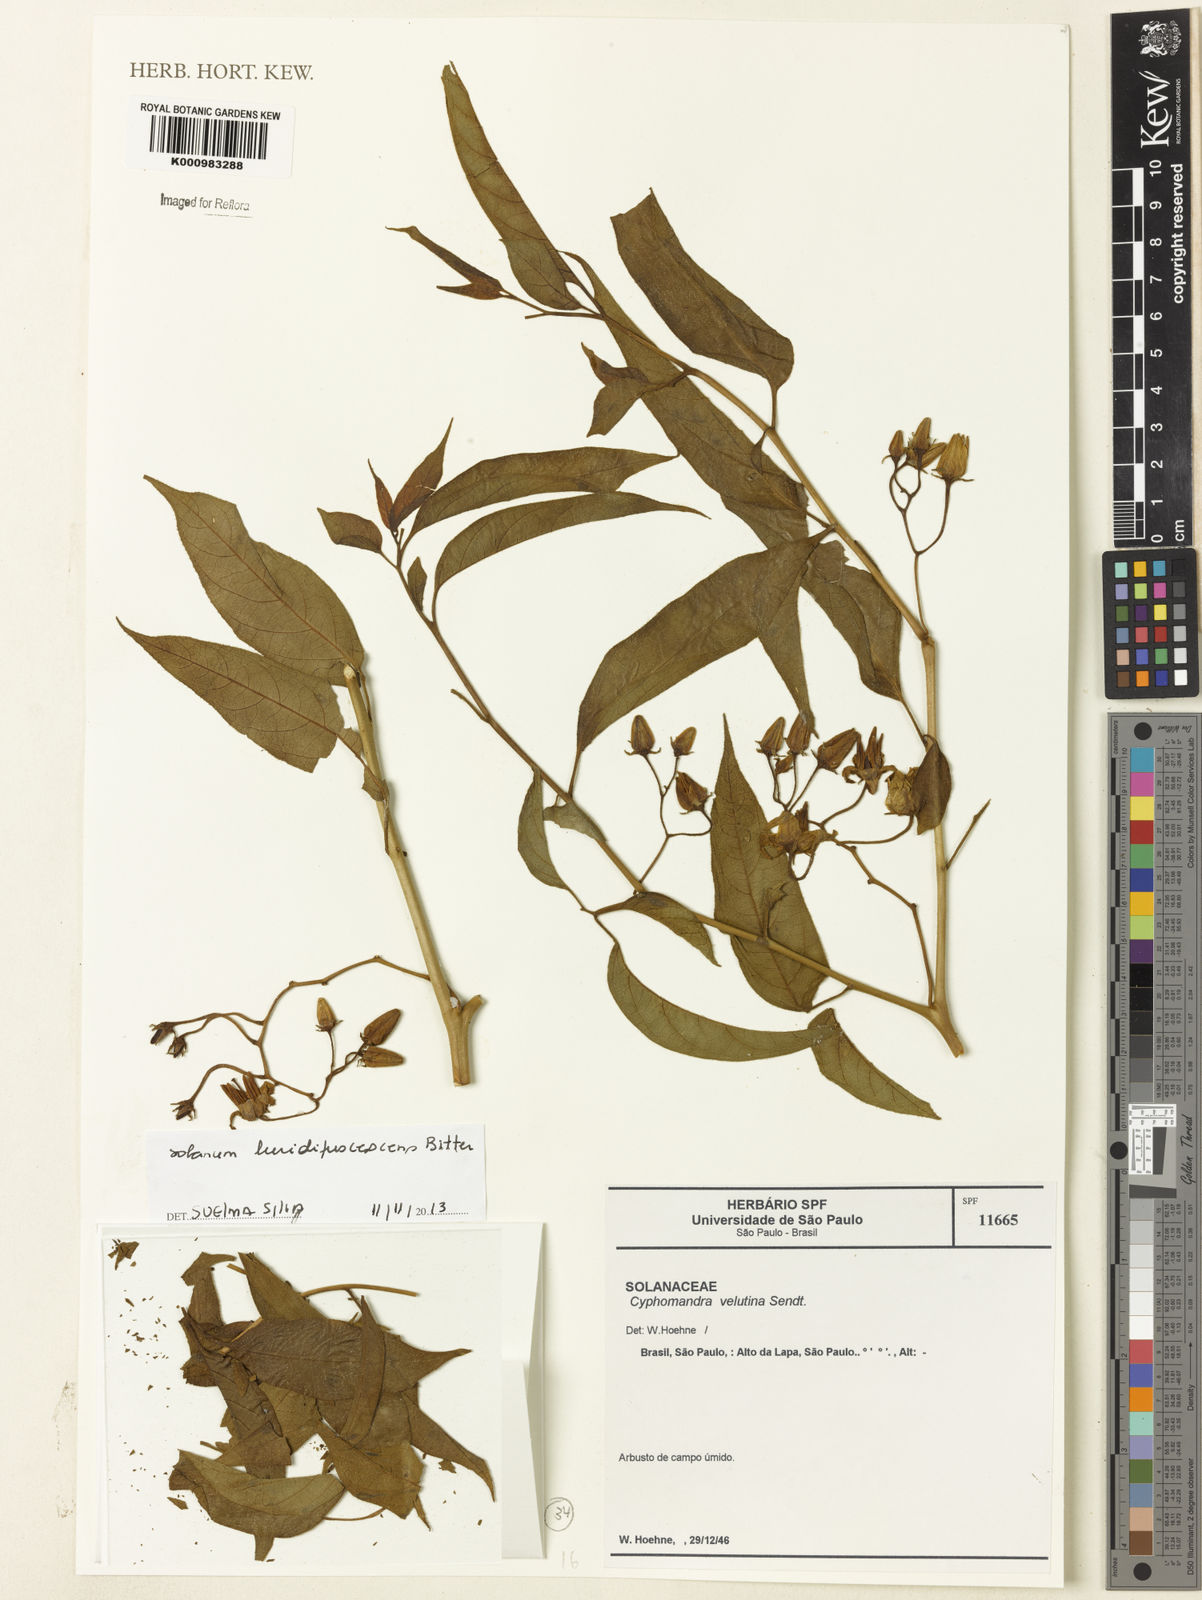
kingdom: Plantae
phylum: Tracheophyta
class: Magnoliopsida
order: Solanales
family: Solanaceae
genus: Solanum
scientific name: Solanum luridifuscescens
